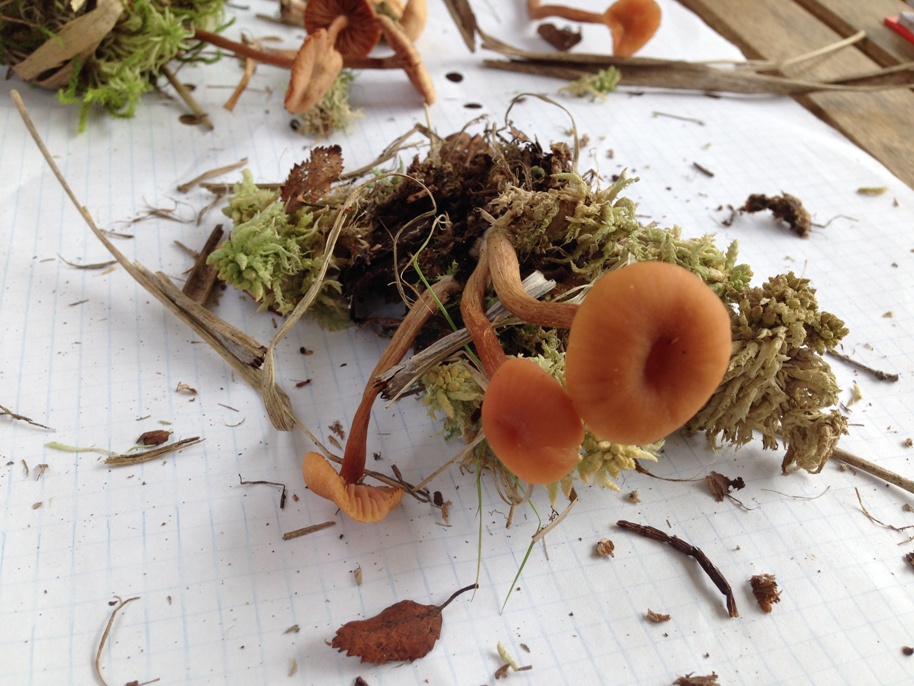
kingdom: Fungi
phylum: Basidiomycota
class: Agaricomycetes
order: Agaricales
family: Hydnangiaceae
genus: Laccaria
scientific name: Laccaria laccata
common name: rød ametysthat
